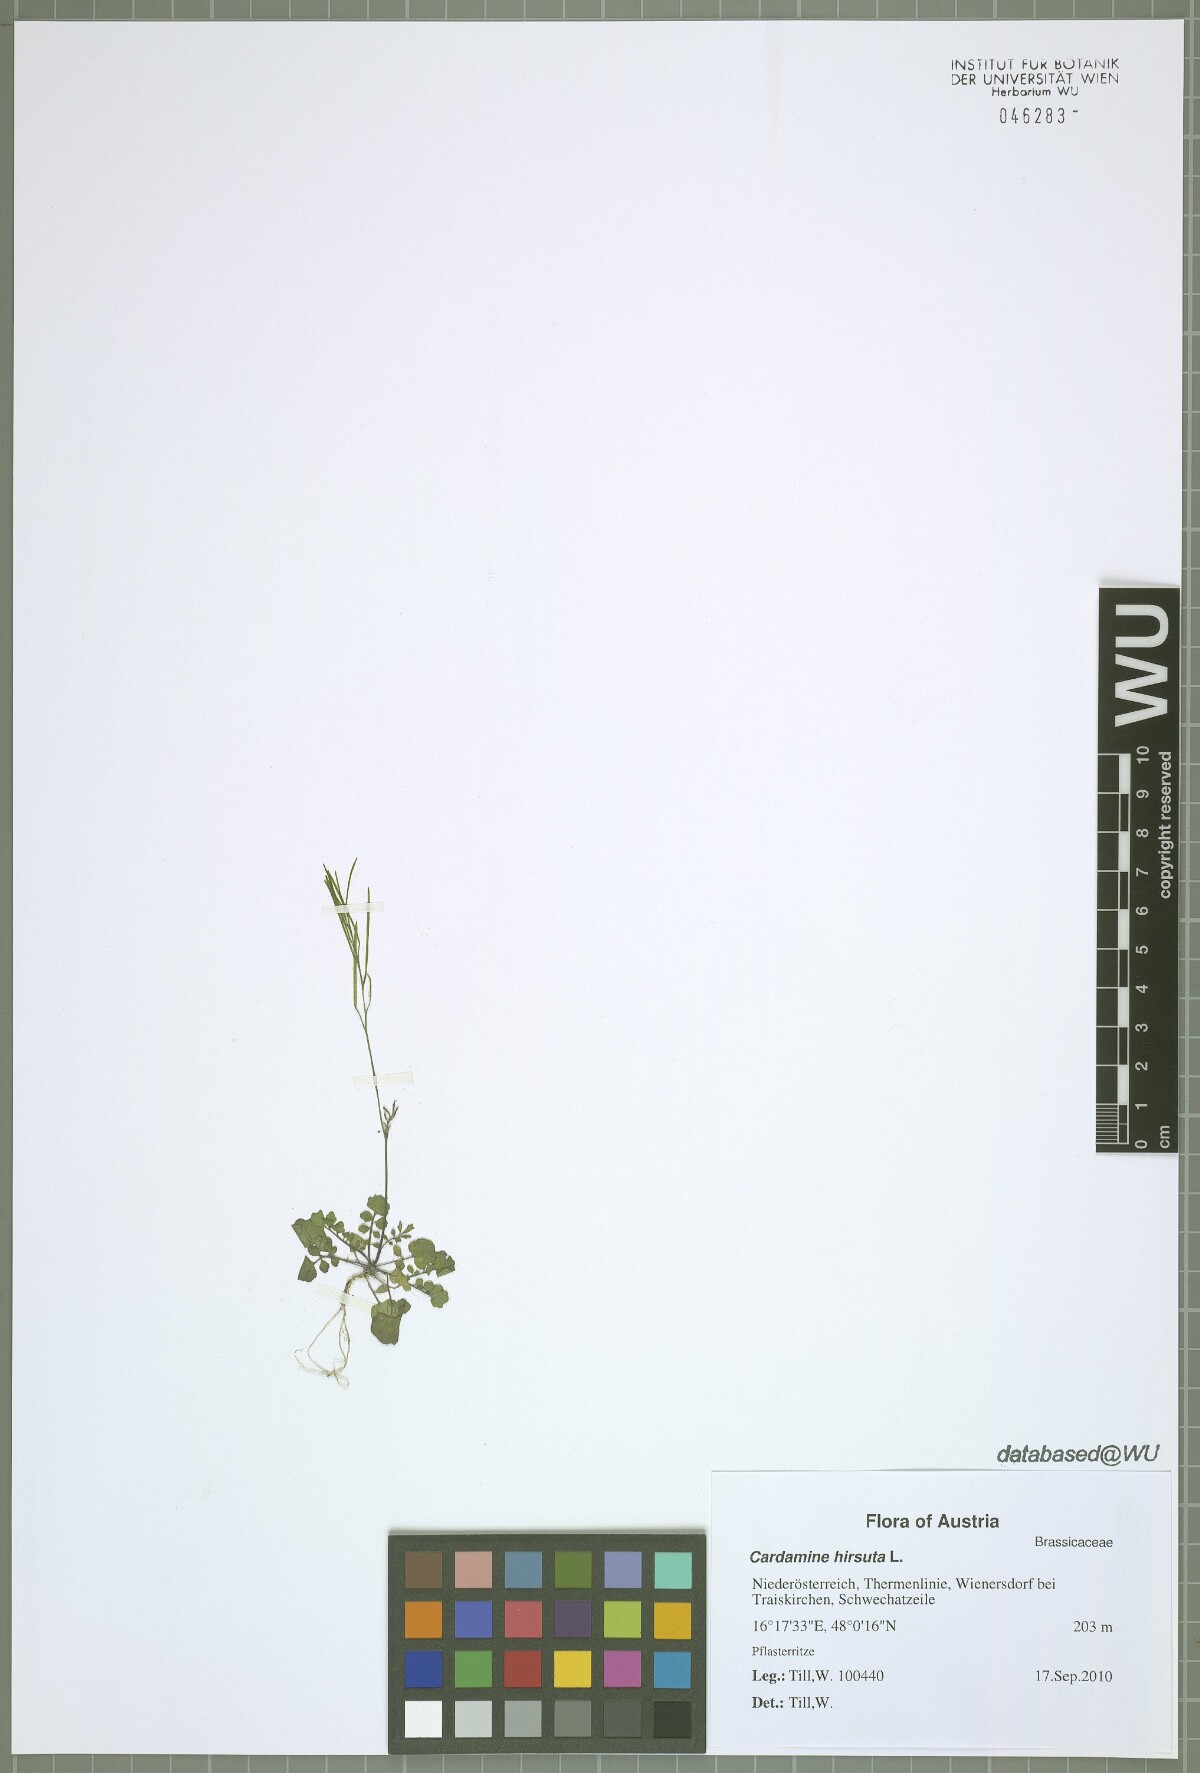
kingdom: Plantae
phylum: Tracheophyta
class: Magnoliopsida
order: Brassicales
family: Brassicaceae
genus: Cardamine
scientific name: Cardamine hirsuta
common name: Hairy bittercress
